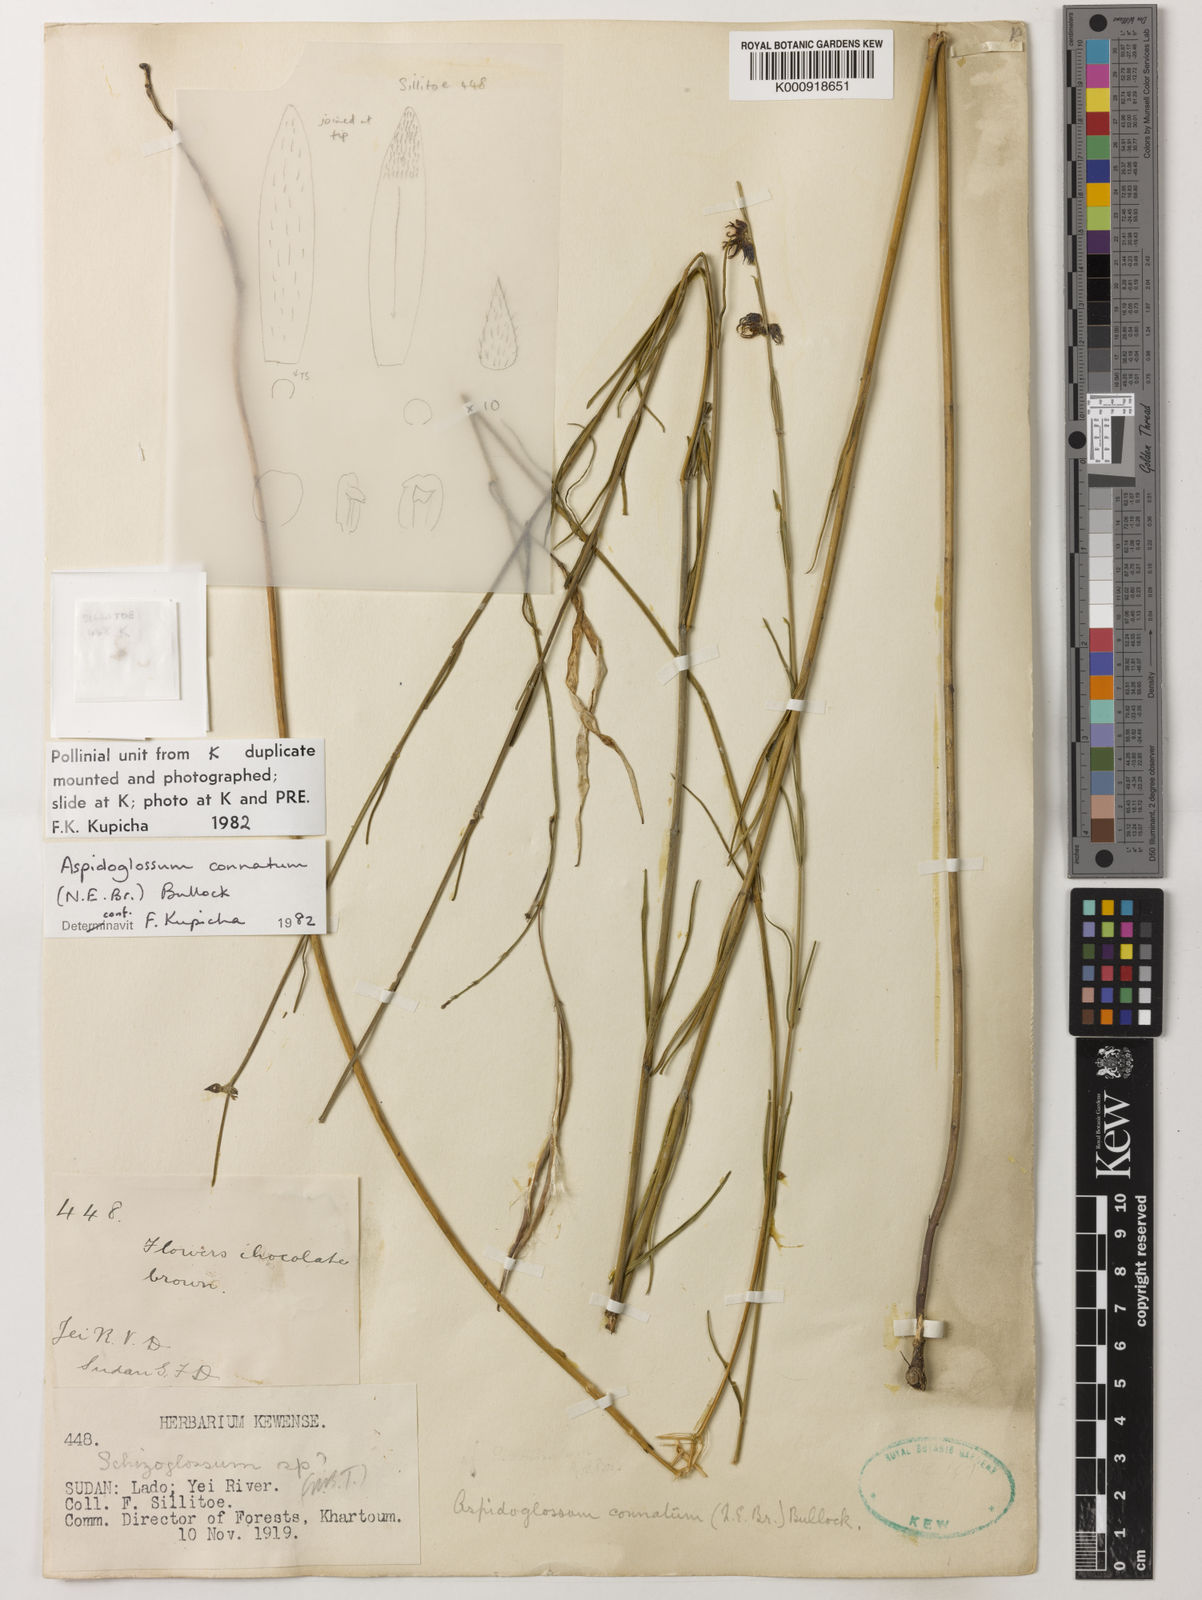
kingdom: Plantae
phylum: Tracheophyta
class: Magnoliopsida
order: Gentianales
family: Apocynaceae
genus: Aspidoglossum
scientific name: Aspidoglossum connatum
